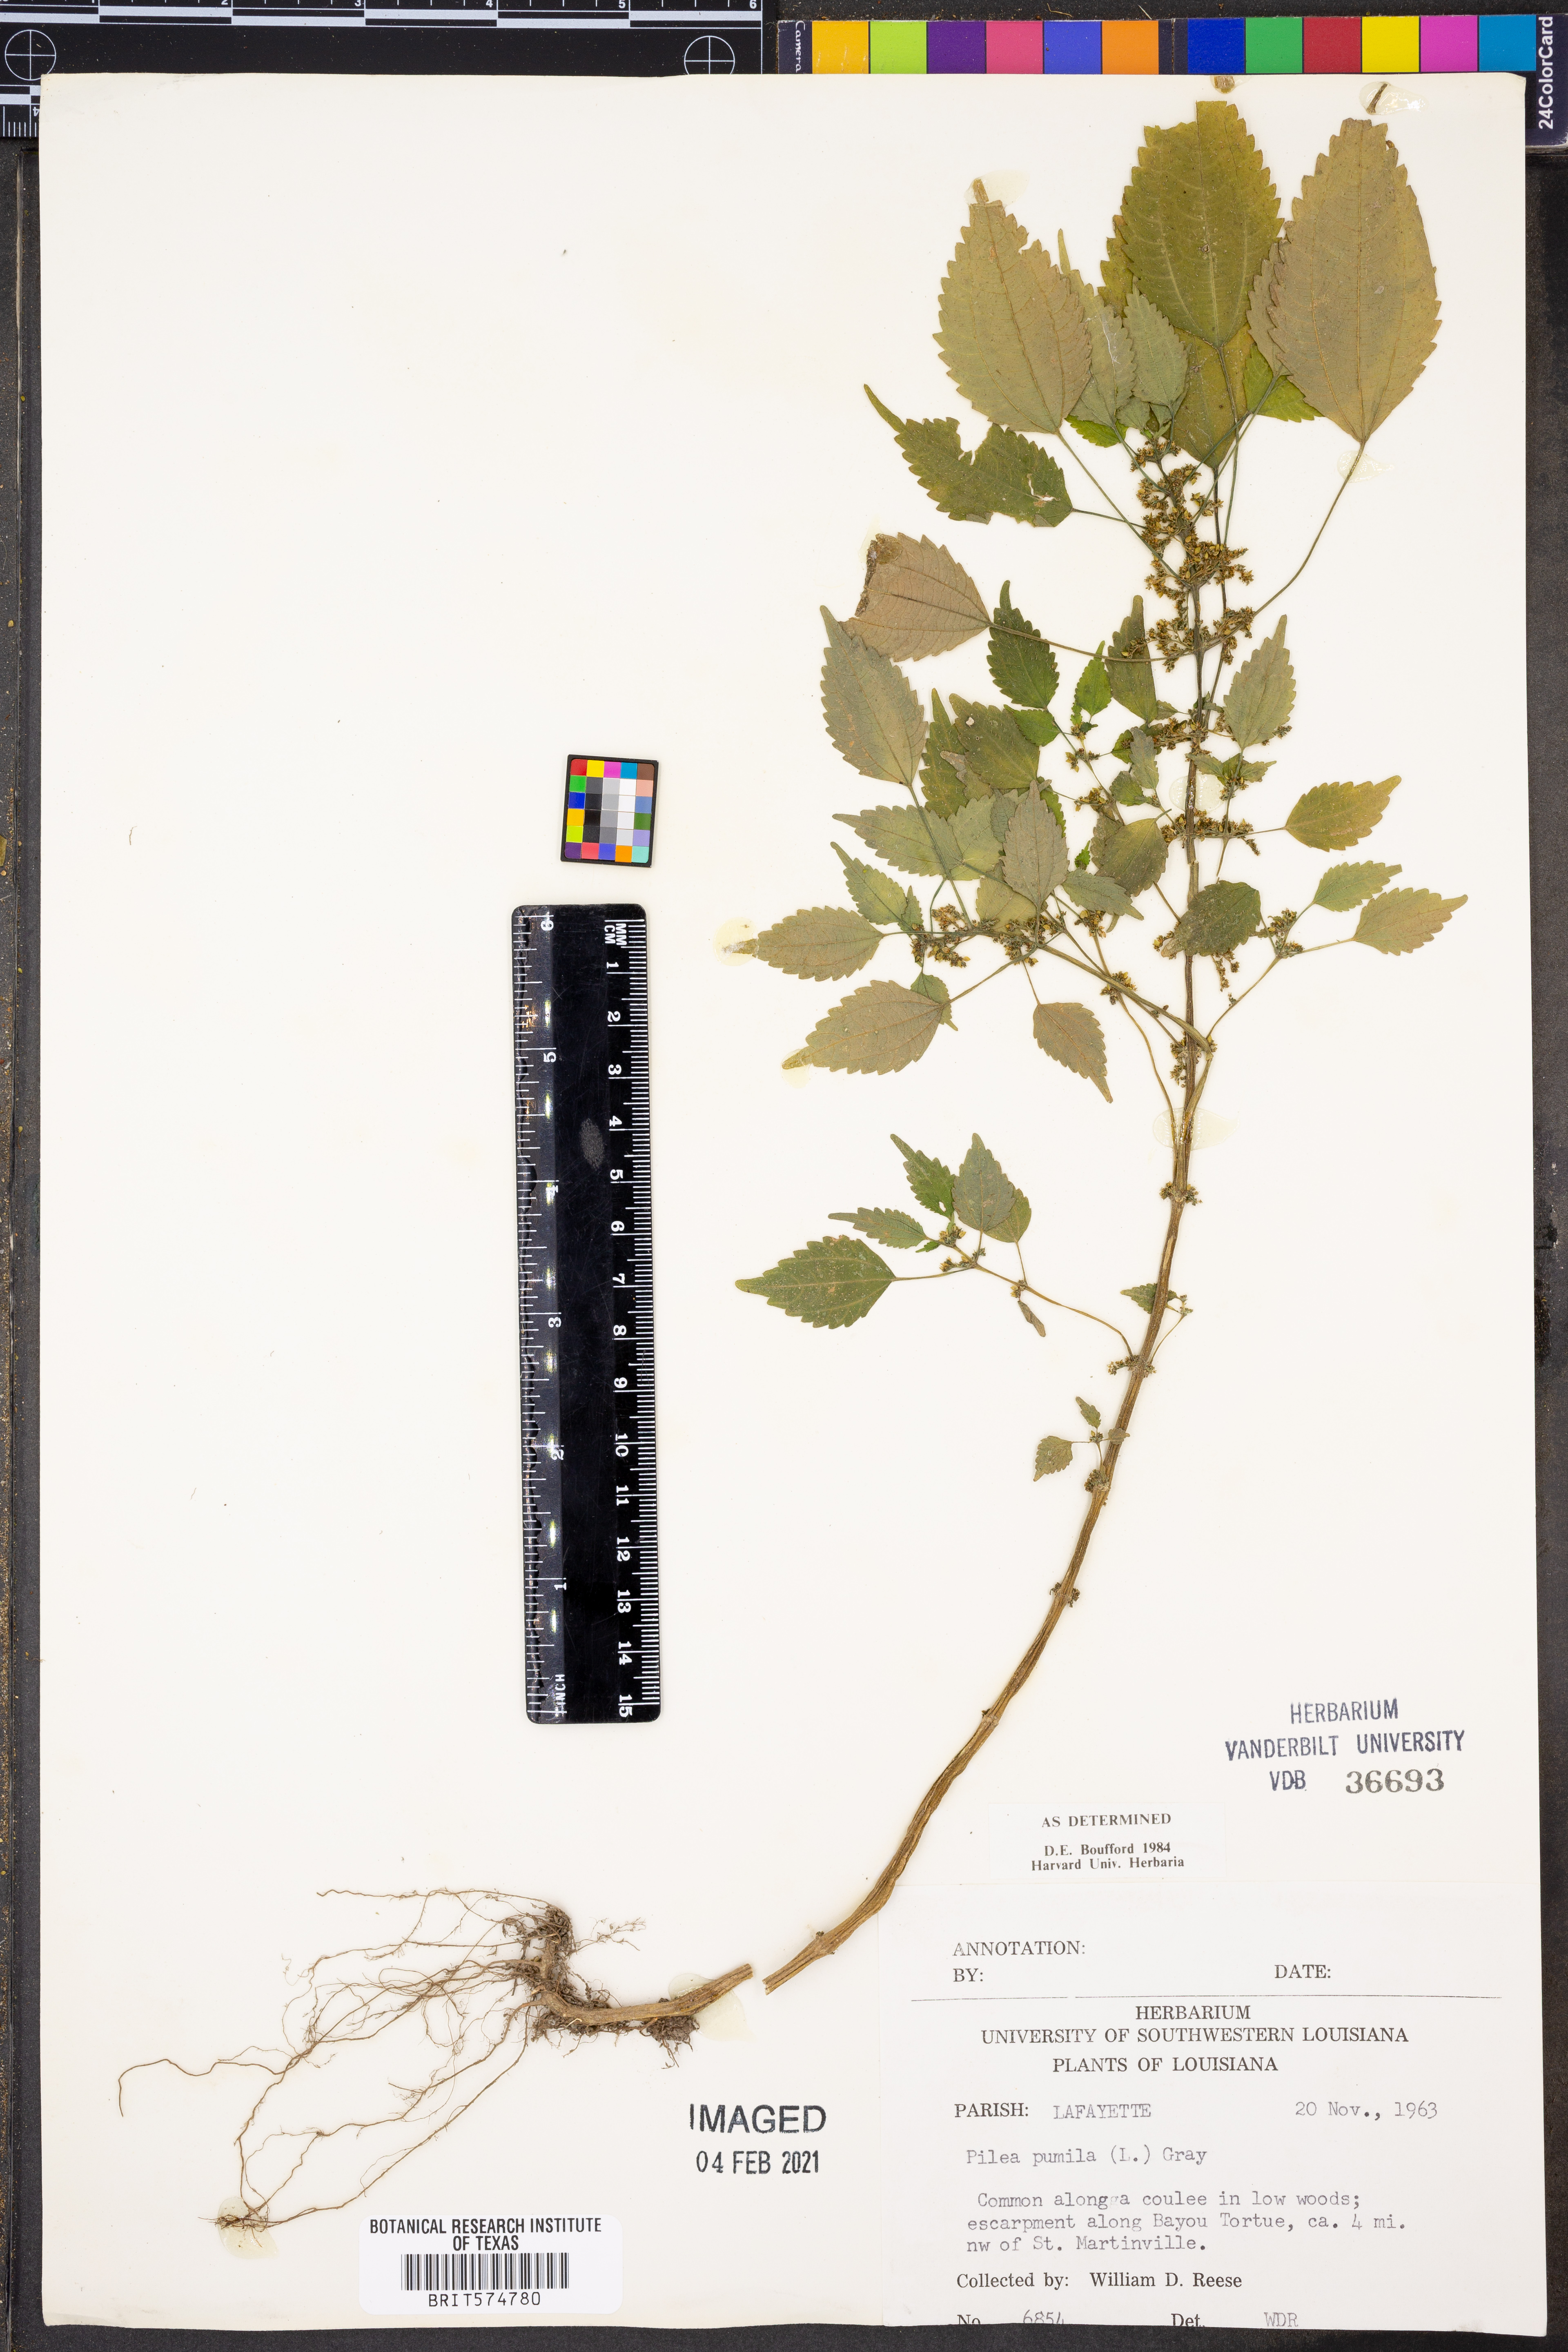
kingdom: Plantae
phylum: Tracheophyta
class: Magnoliopsida
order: Rosales
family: Urticaceae
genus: Pilea
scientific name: Pilea pumila
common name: Clearweed
